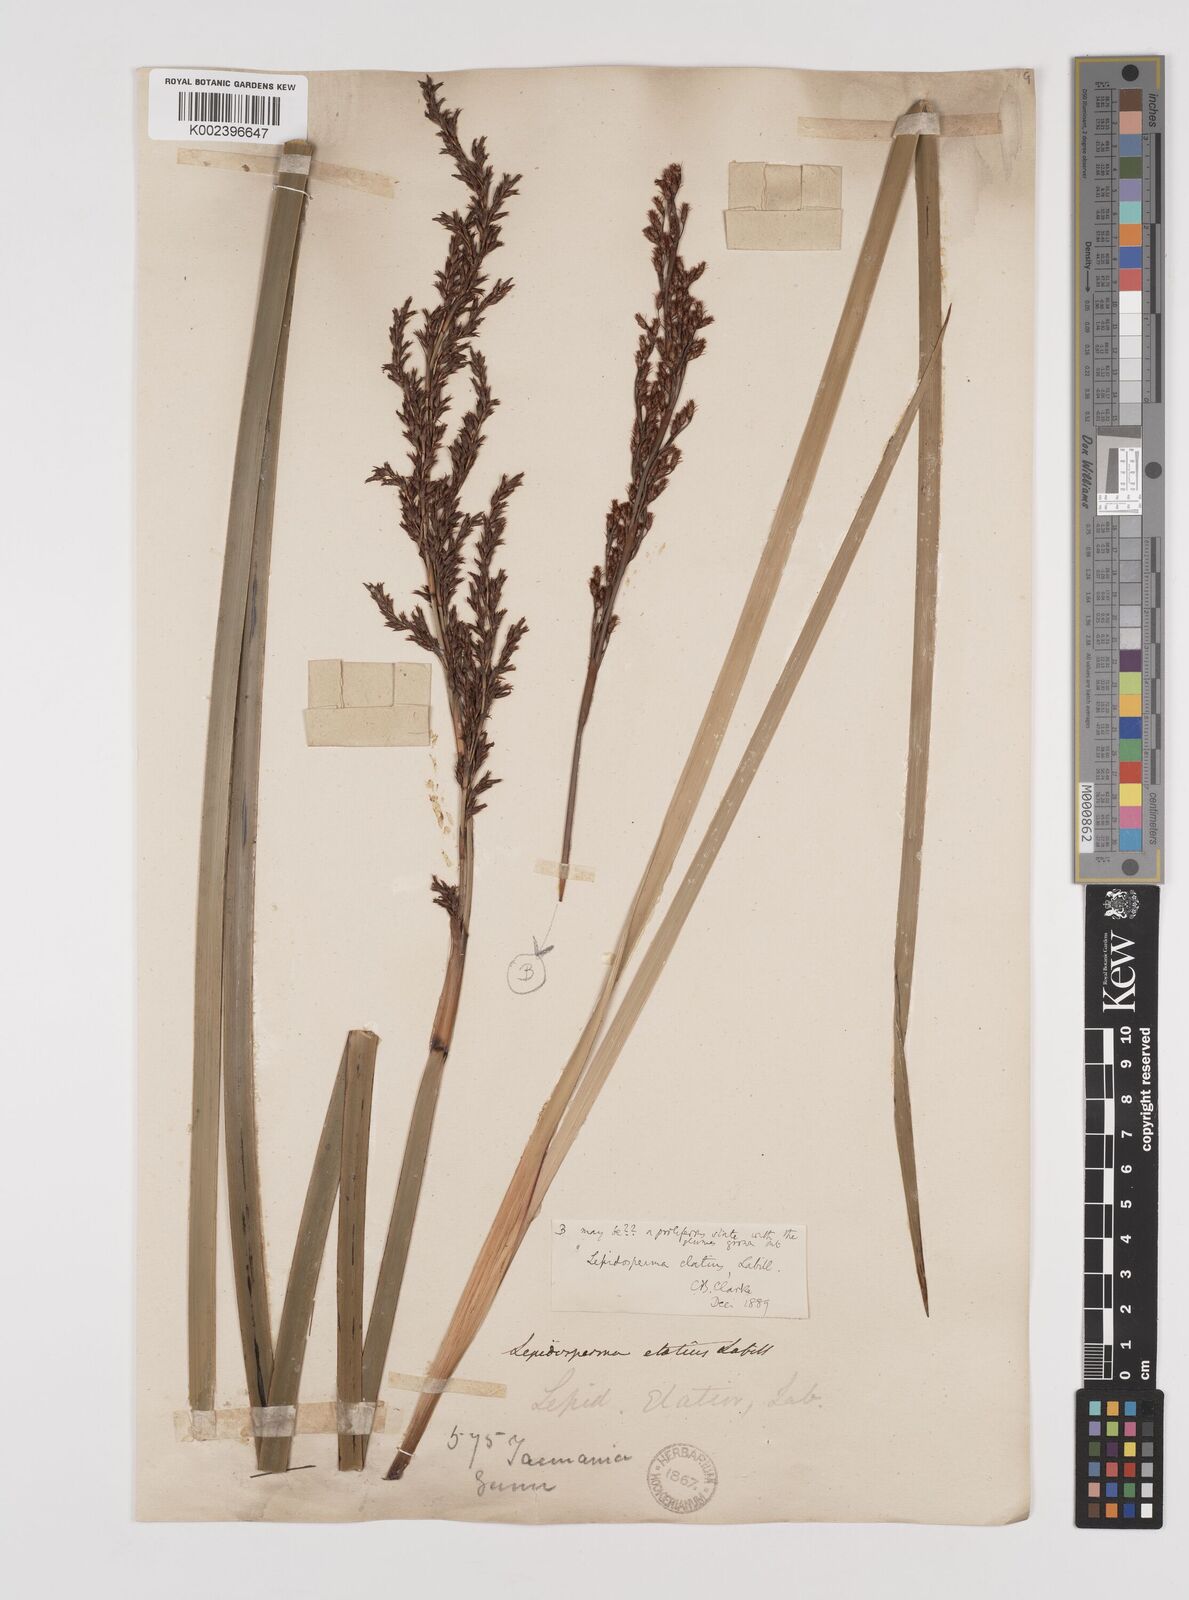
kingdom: Plantae
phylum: Tracheophyta
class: Liliopsida
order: Poales
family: Cyperaceae
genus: Lepidosperma
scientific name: Lepidosperma elatius
